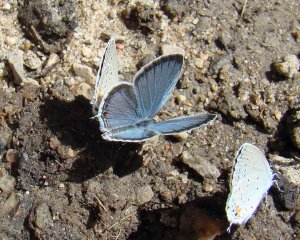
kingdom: Animalia
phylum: Arthropoda
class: Insecta
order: Lepidoptera
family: Lycaenidae
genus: Elkalyce
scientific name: Elkalyce comyntas
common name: Eastern Tailed-Blue
